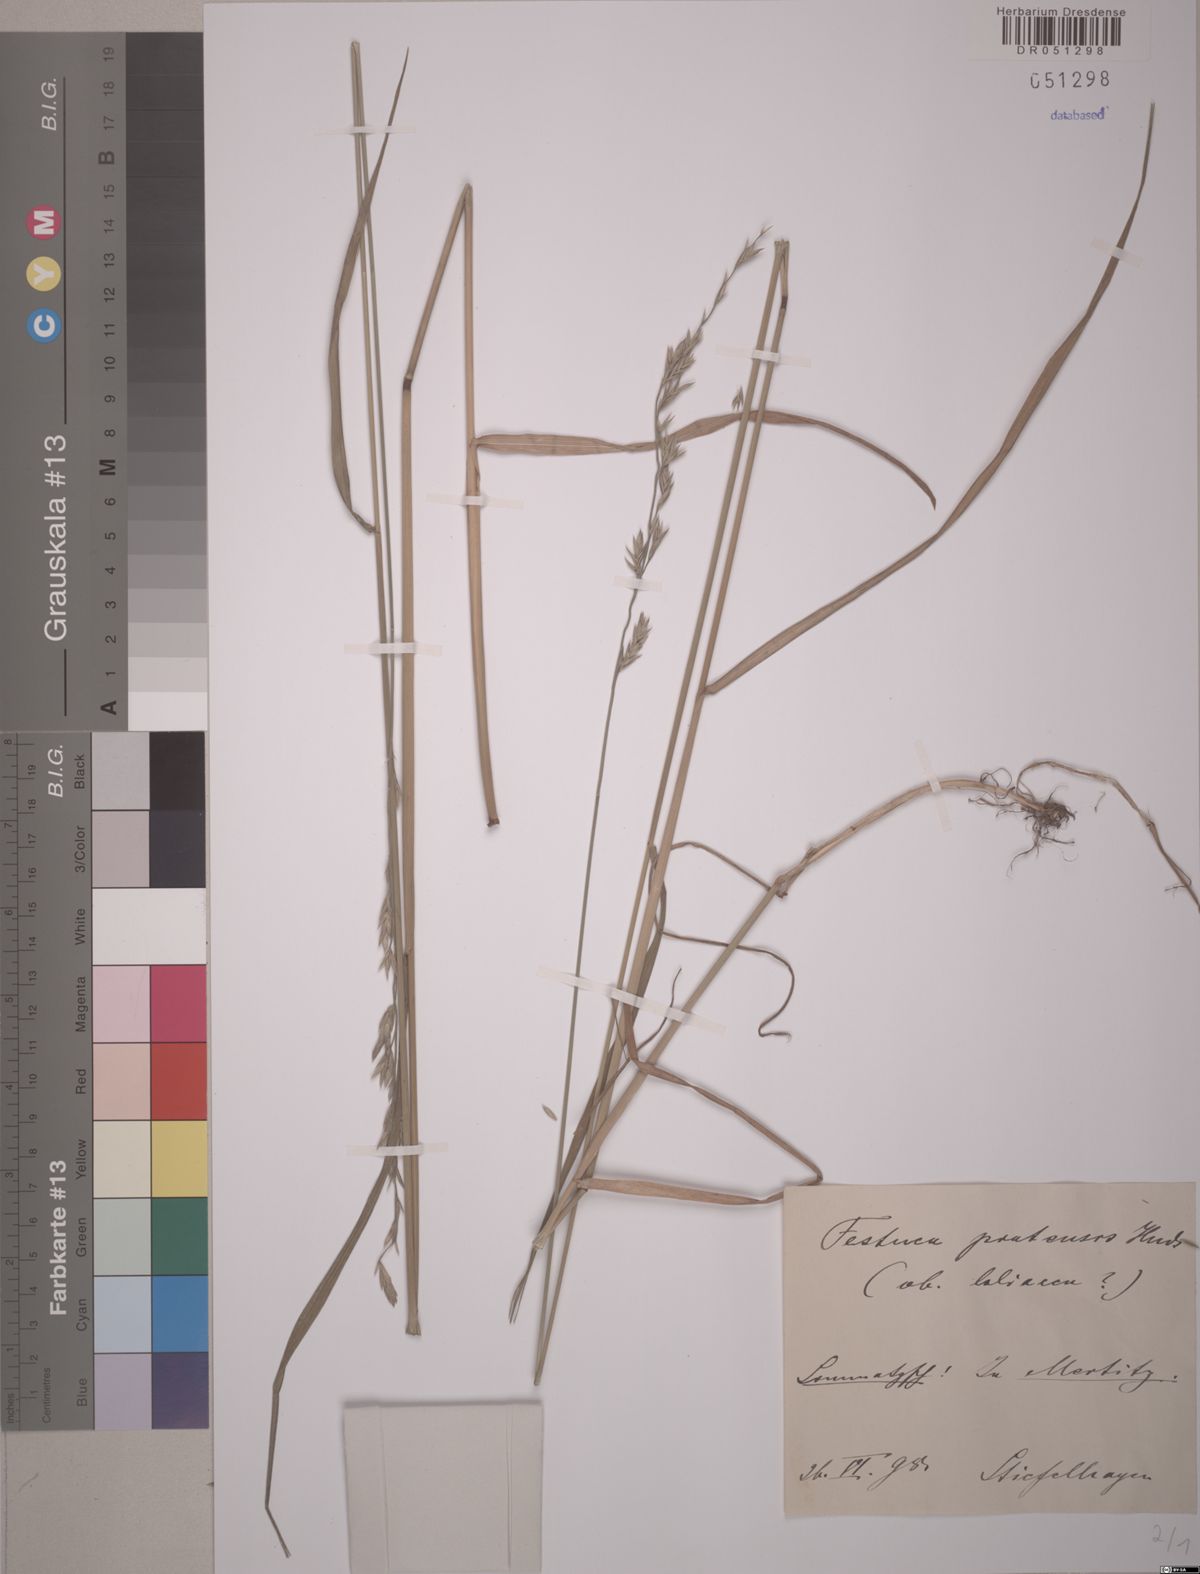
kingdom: Plantae
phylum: Tracheophyta
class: Liliopsida
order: Poales
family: Poaceae
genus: Lolium
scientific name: Lolium pratense
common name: Dover grass
